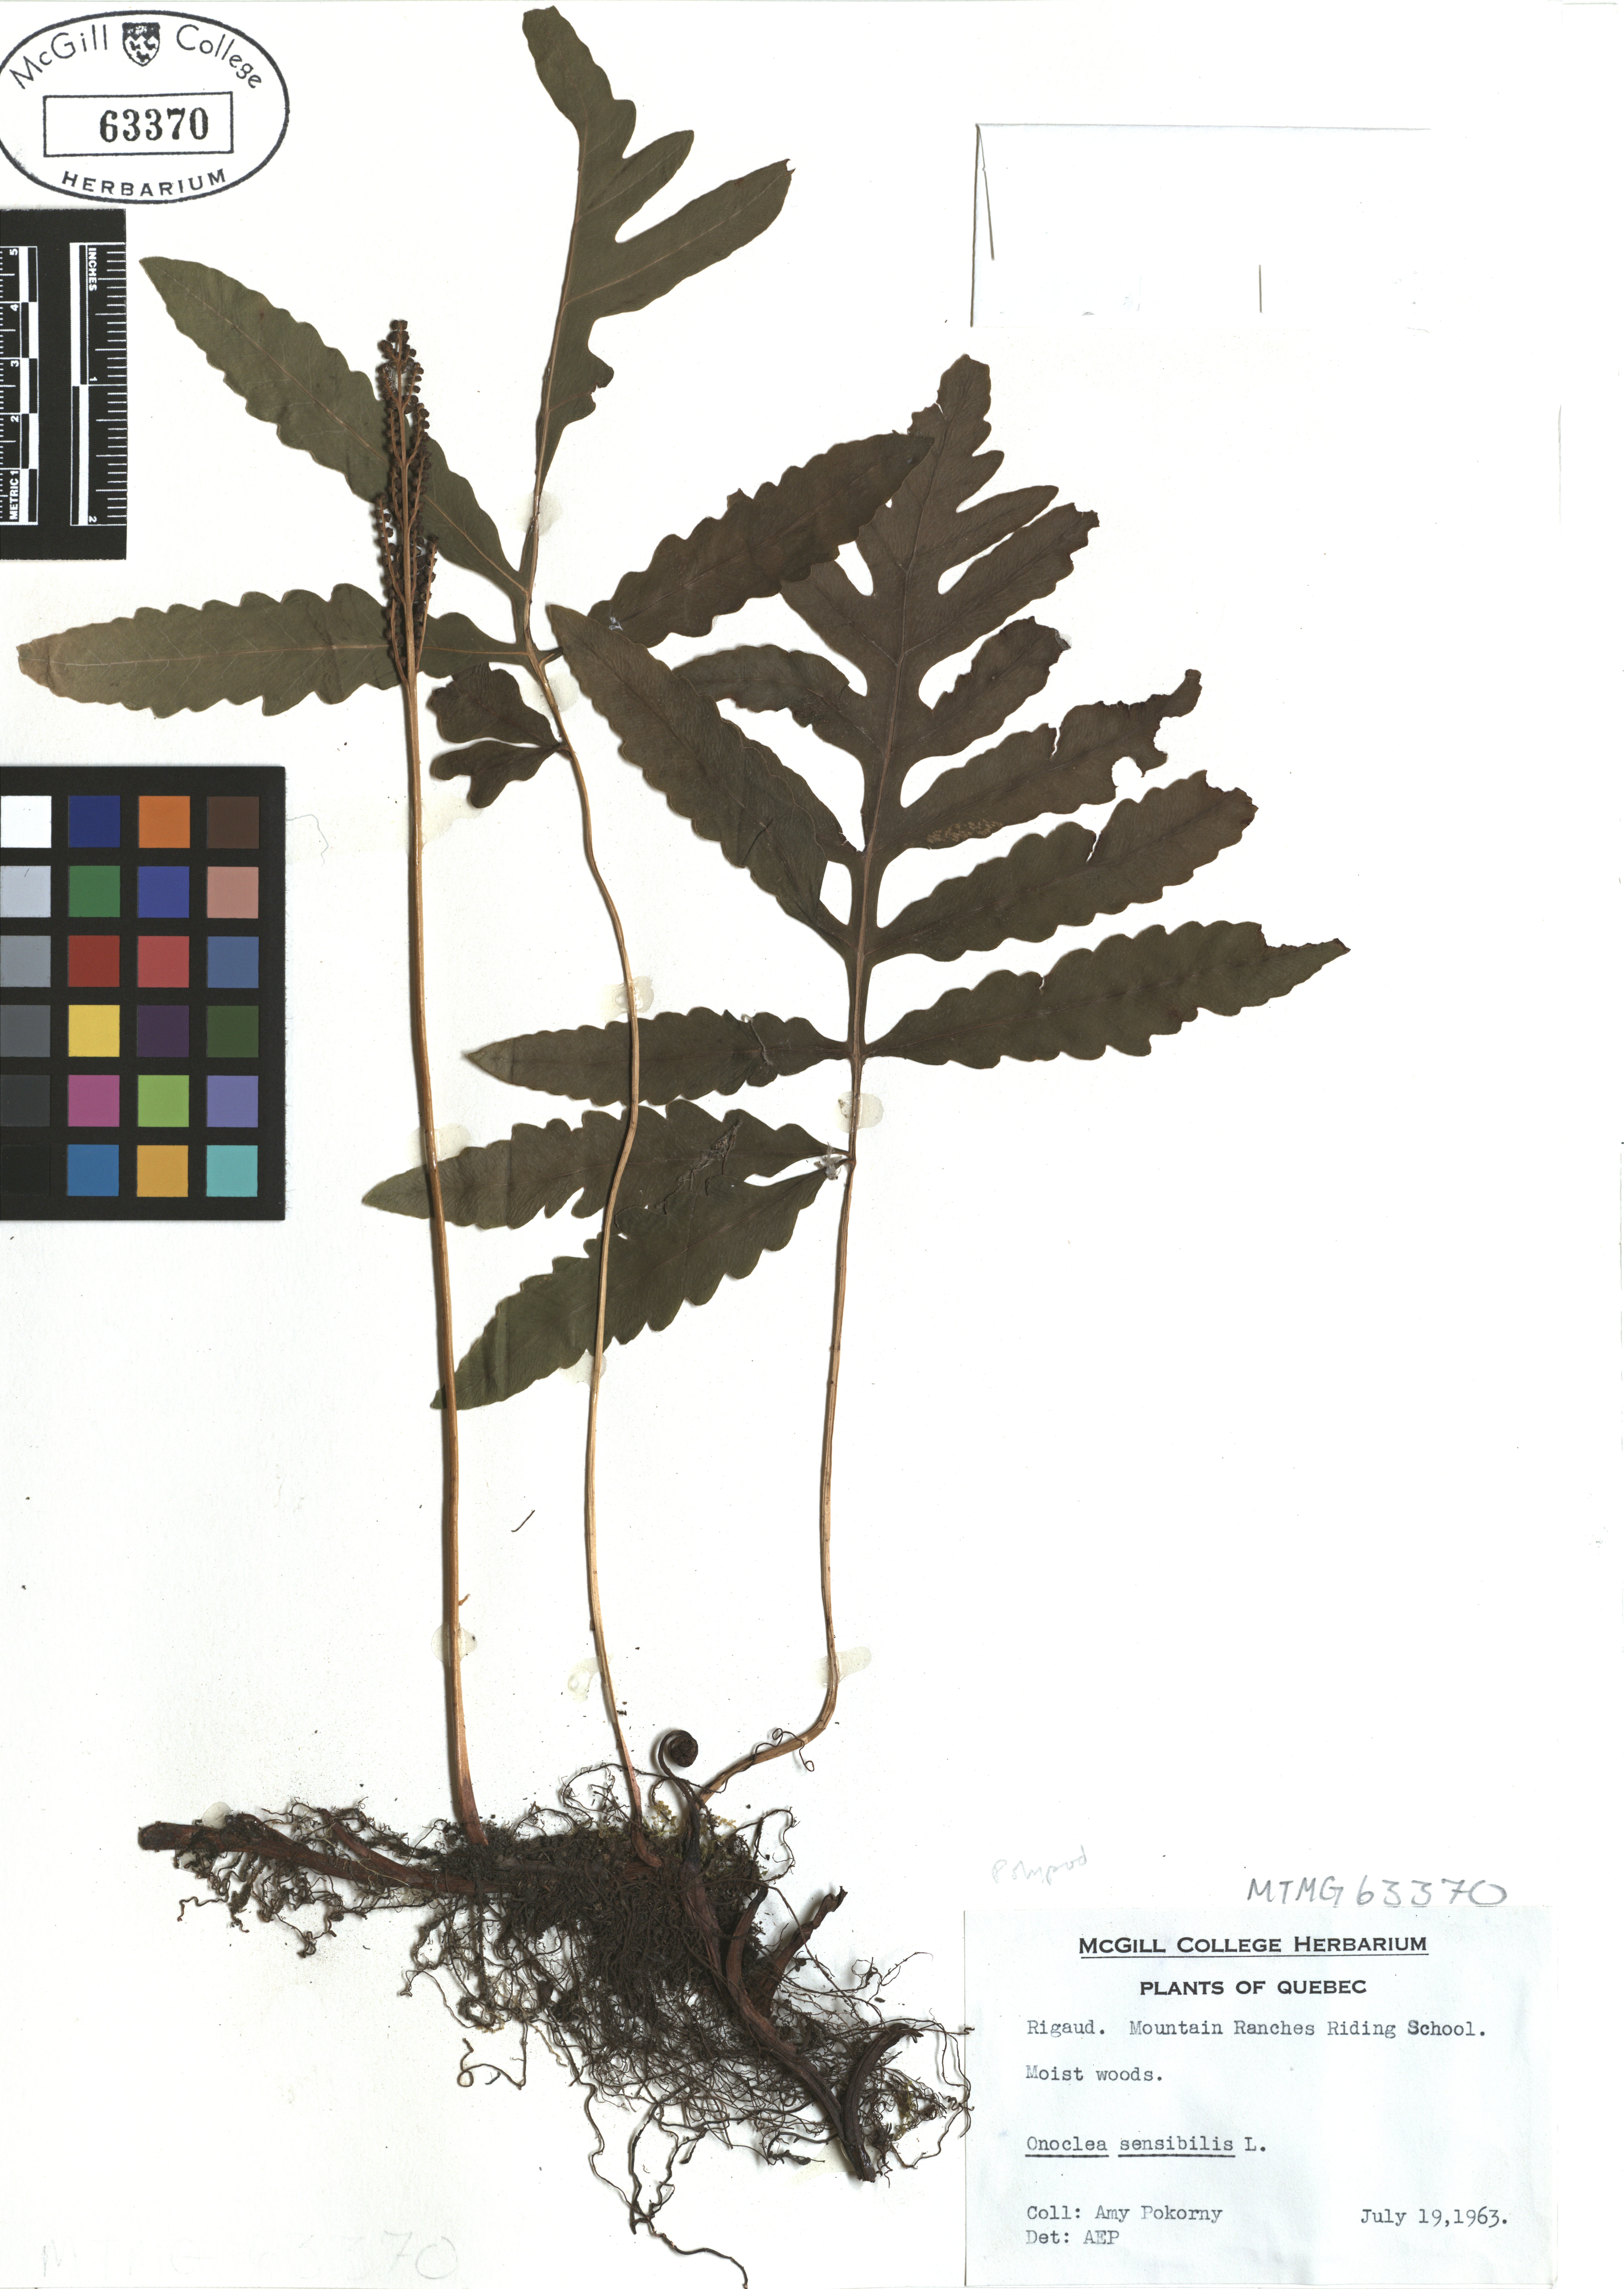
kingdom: Plantae
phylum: Tracheophyta
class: Polypodiopsida
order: Polypodiales
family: Onocleaceae
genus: Onoclea
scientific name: Onoclea sensibilis
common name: Sensitive fern
